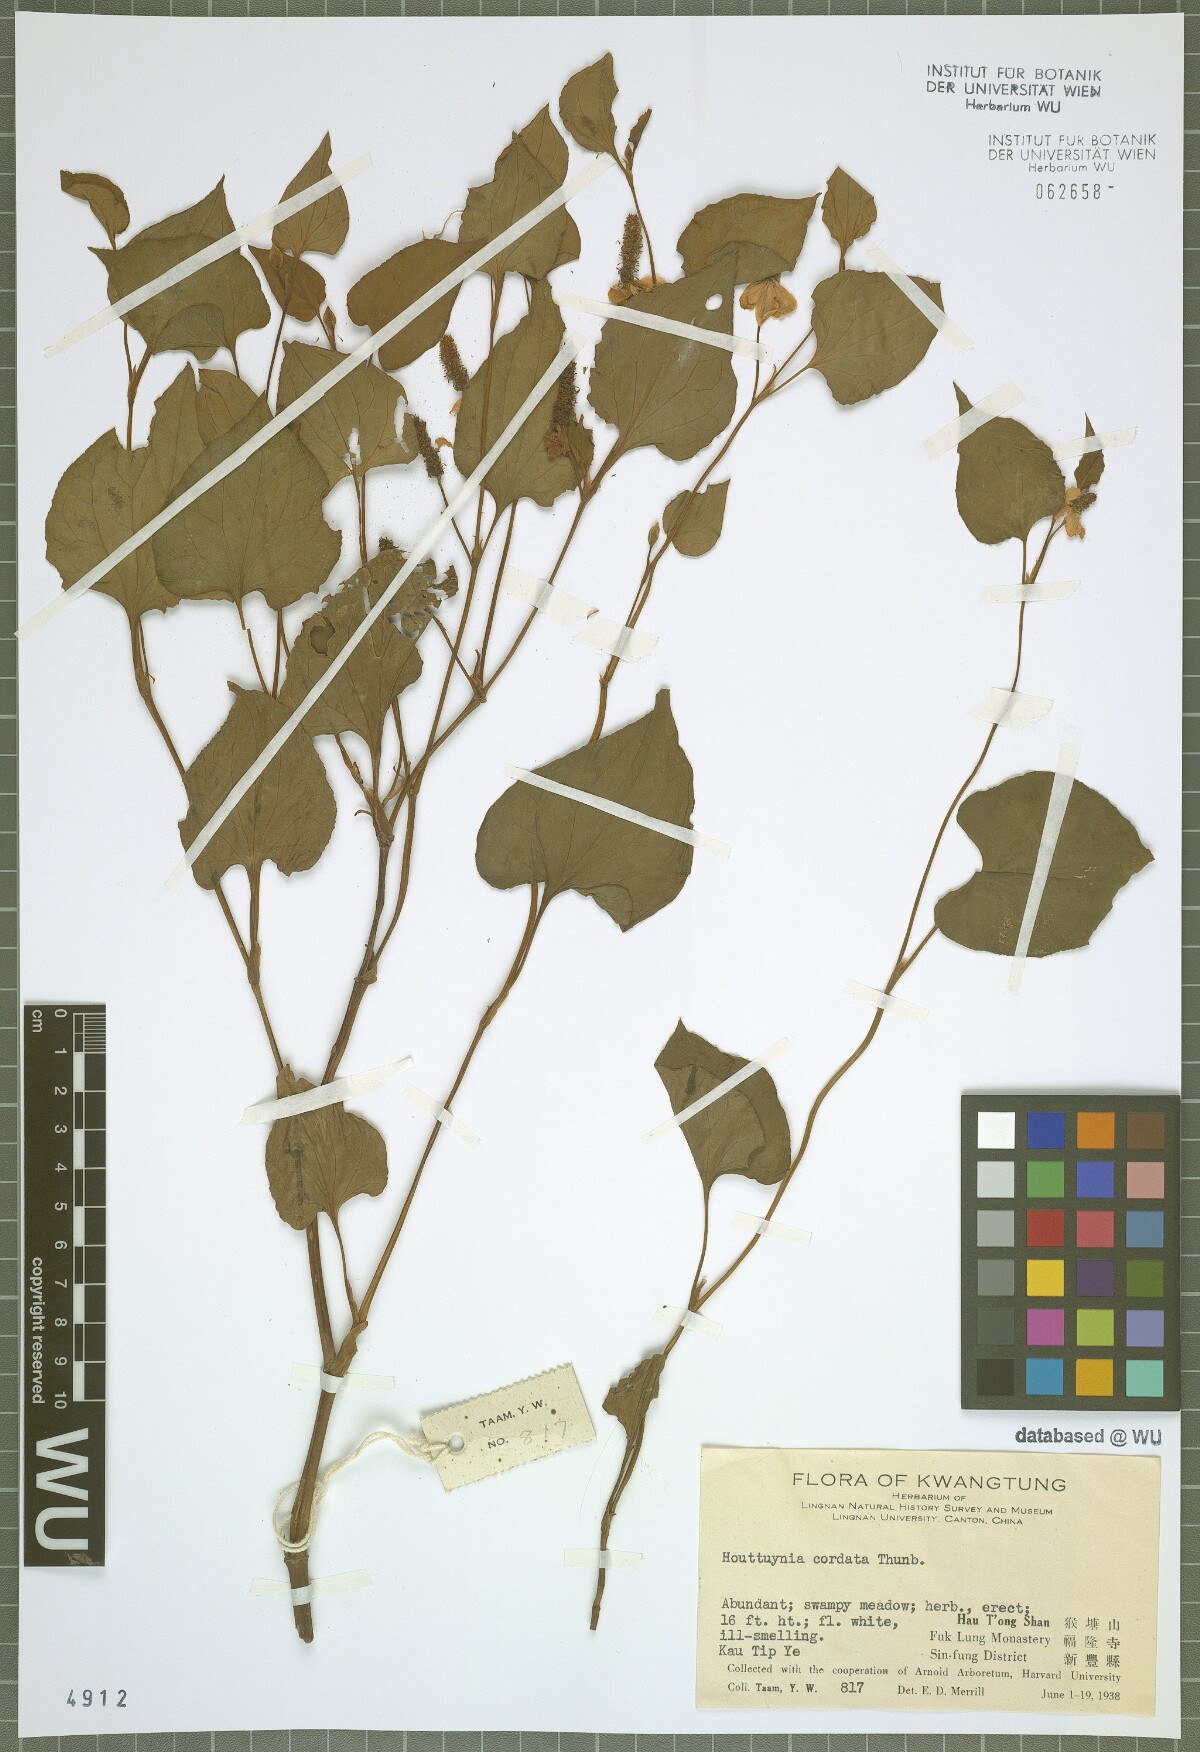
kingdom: Plantae
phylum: Tracheophyta
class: Magnoliopsida
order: Piperales
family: Saururaceae
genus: Houttuynia
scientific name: Houttuynia cordata
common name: Chameleon
